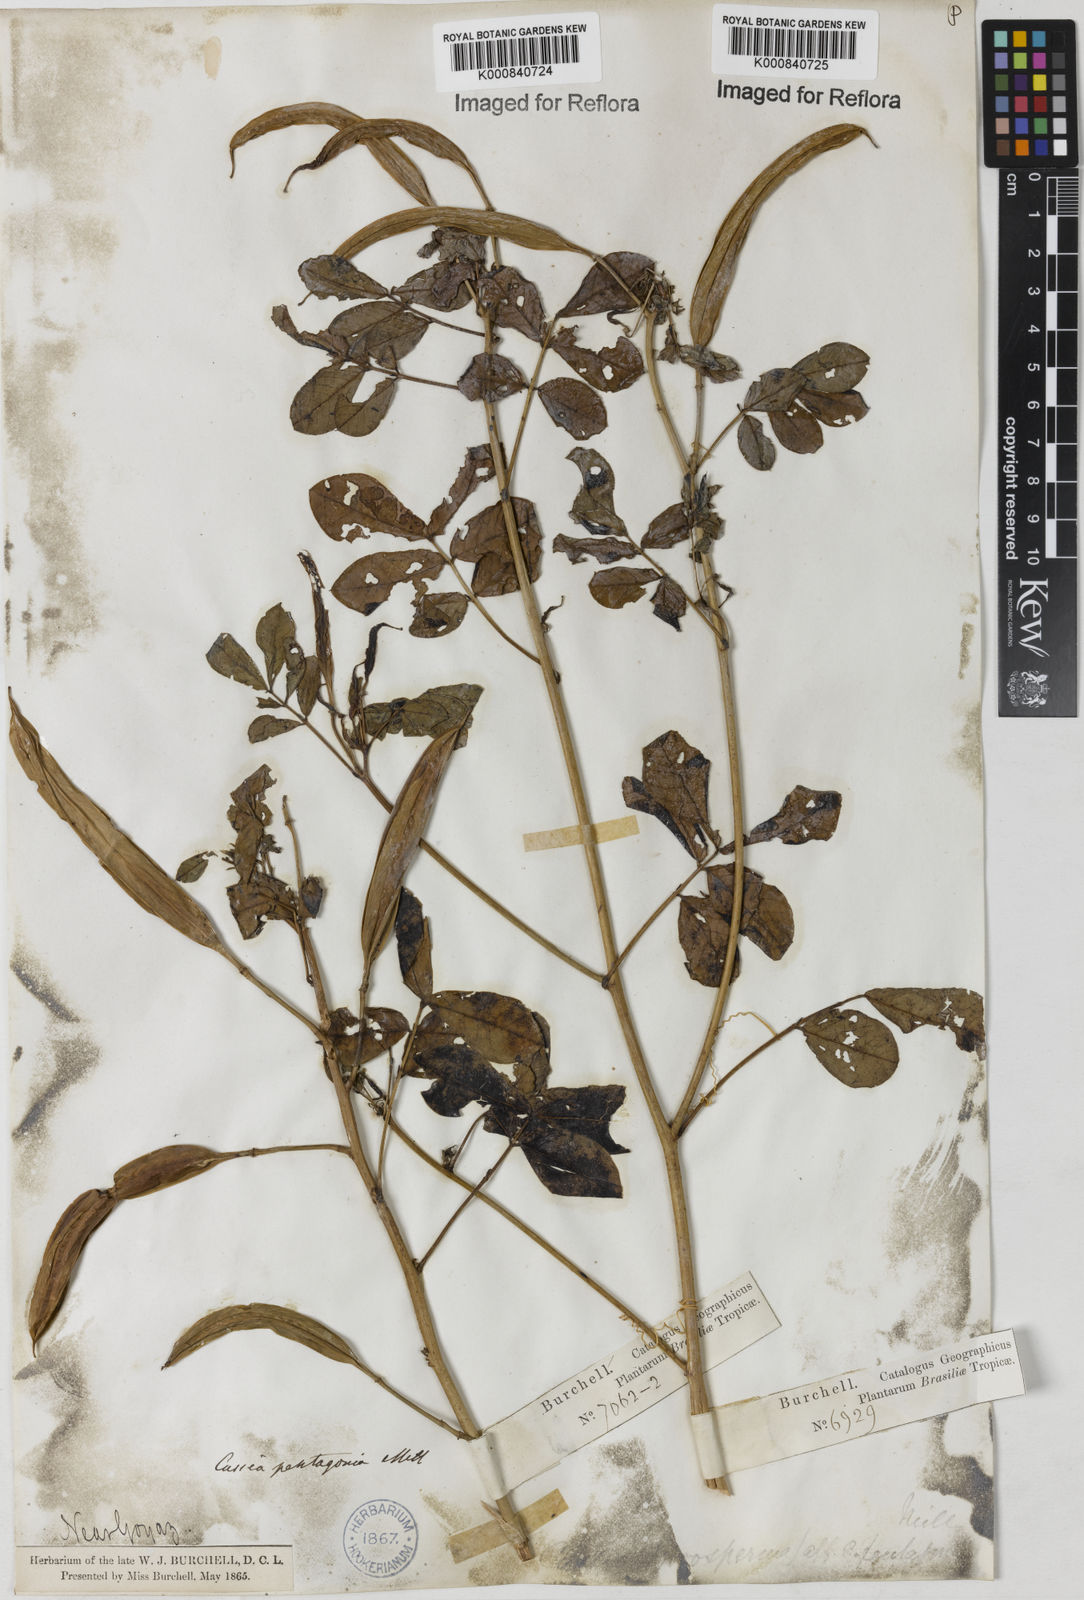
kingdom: Plantae
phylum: Tracheophyta
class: Magnoliopsida
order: Fabales
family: Fabaceae
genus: Senna
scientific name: Senna pentagonia
